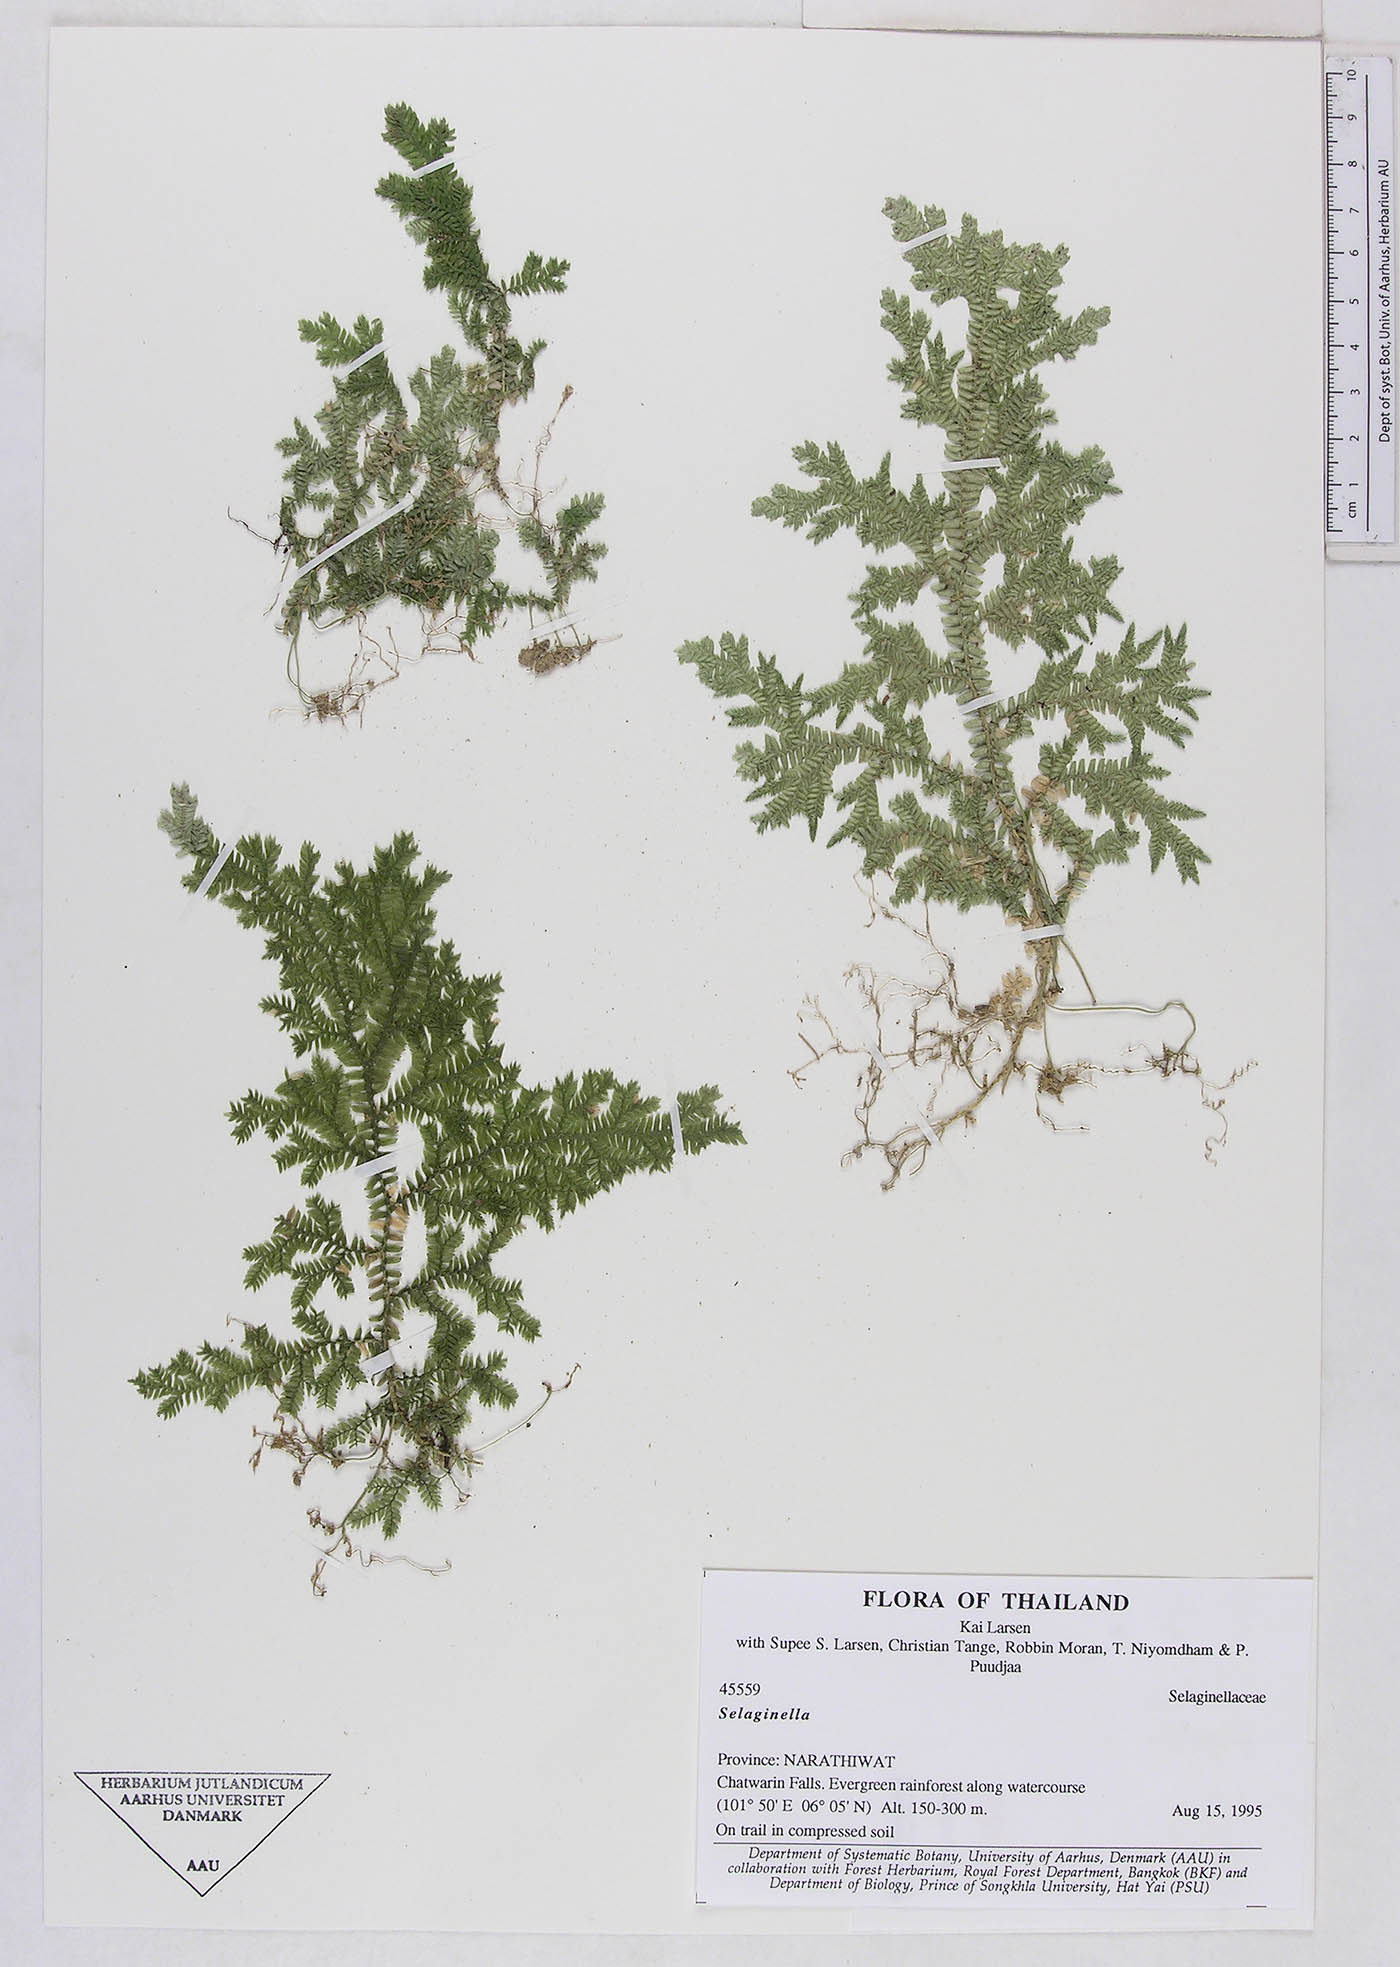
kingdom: Plantae
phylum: Tracheophyta
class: Lycopodiopsida
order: Selaginellales
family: Selaginellaceae
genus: Selaginella
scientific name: Selaginella
